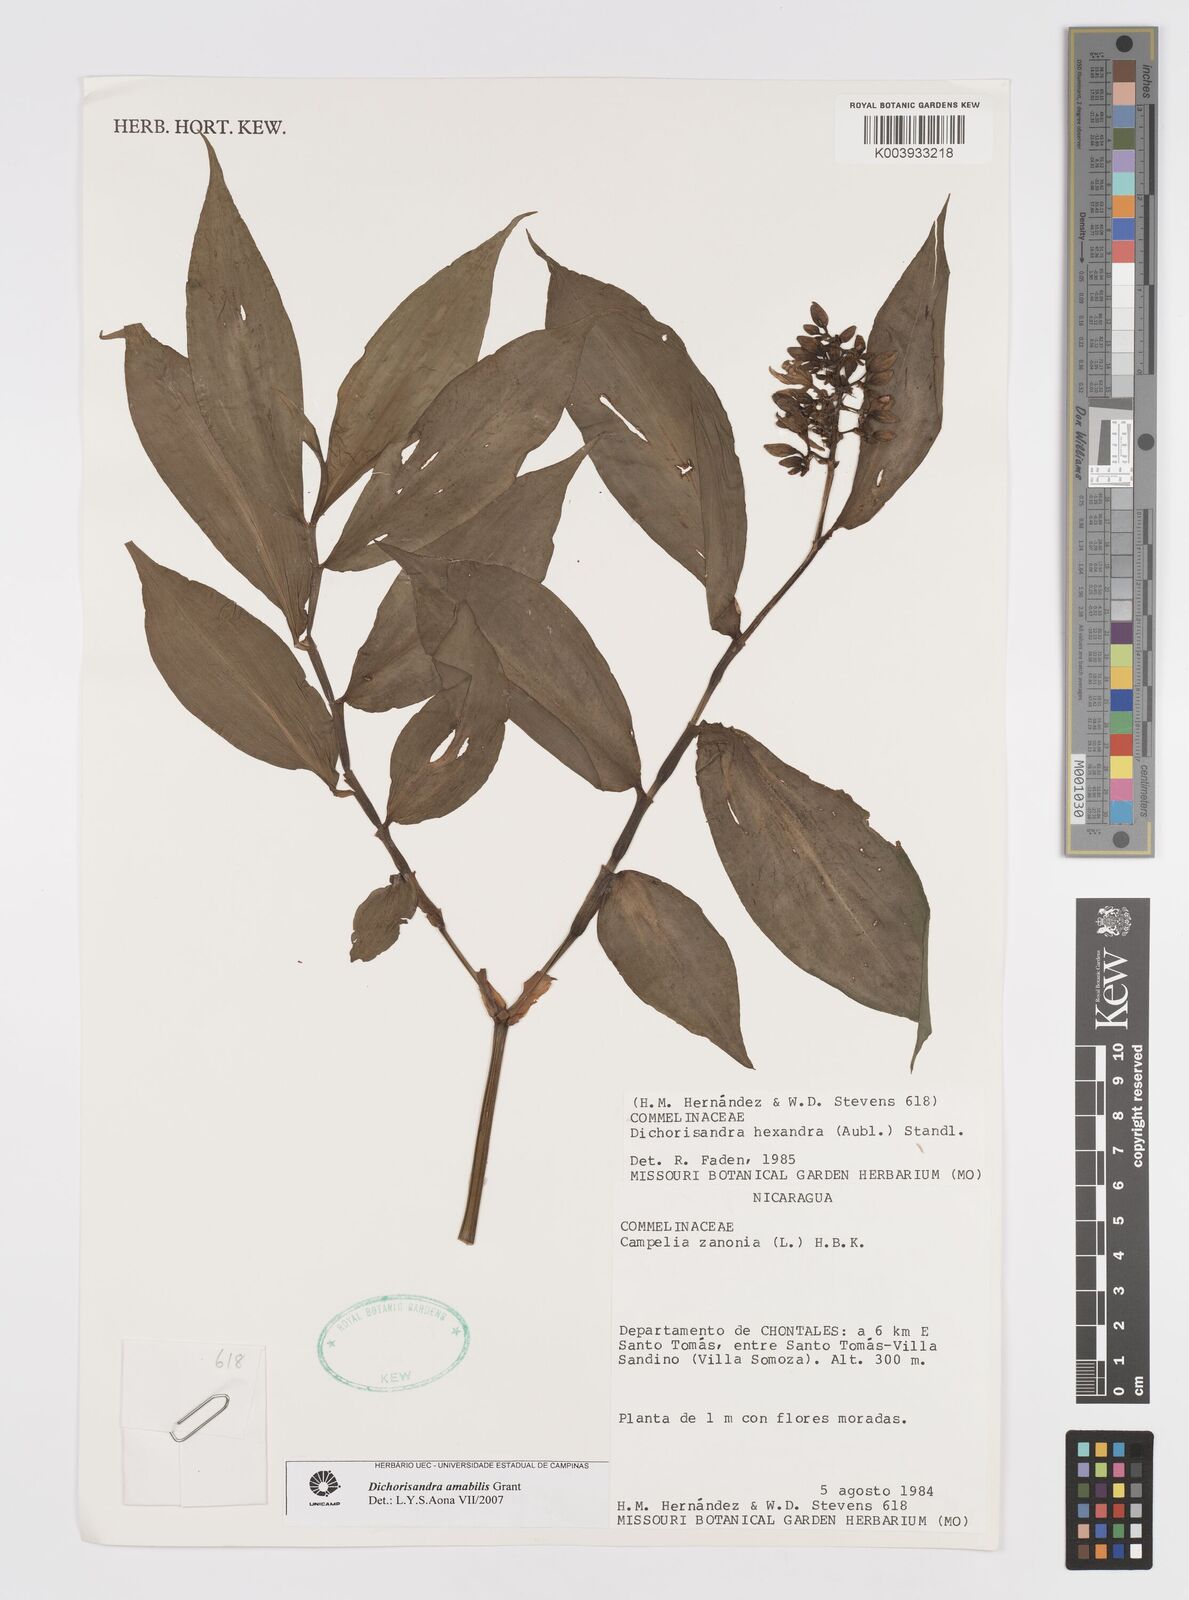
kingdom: Plantae
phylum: Tracheophyta
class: Liliopsida
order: Commelinales
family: Commelinaceae
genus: Dichorisandra
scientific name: Dichorisandra amabilis
